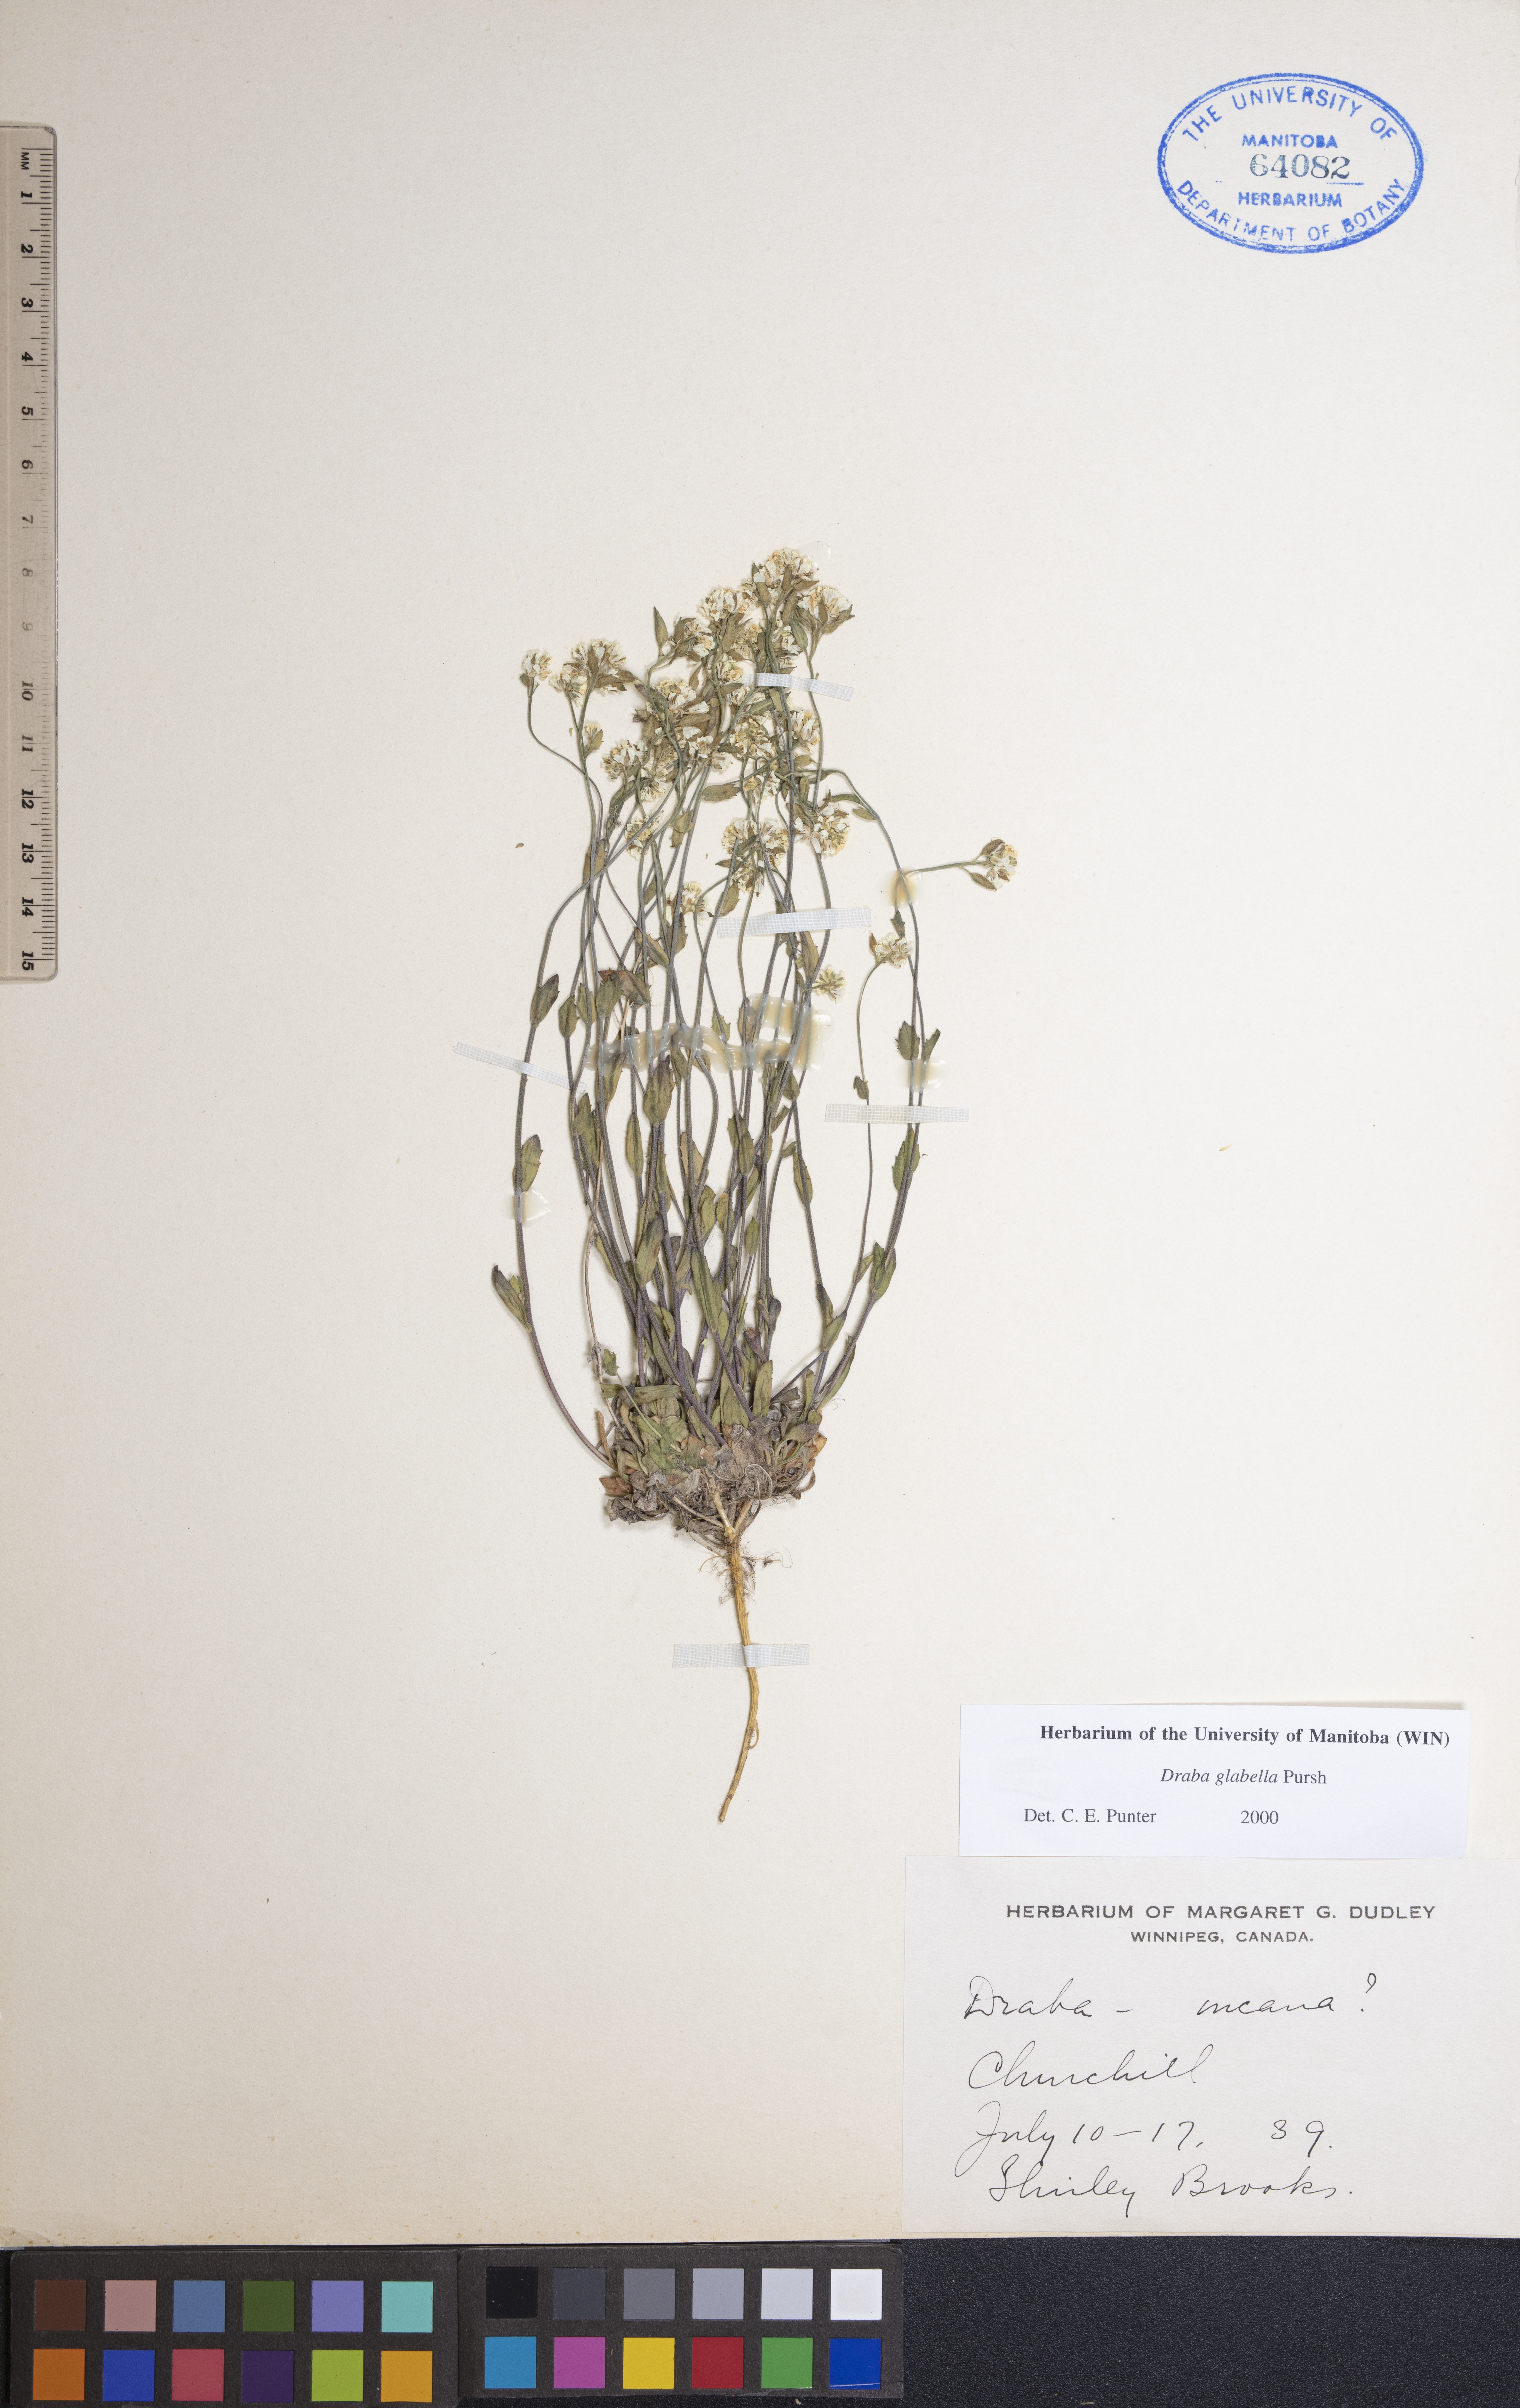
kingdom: Plantae
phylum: Tracheophyta
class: Magnoliopsida
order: Brassicales
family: Brassicaceae
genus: Draba
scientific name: Draba glabella
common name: Glaucous draba
